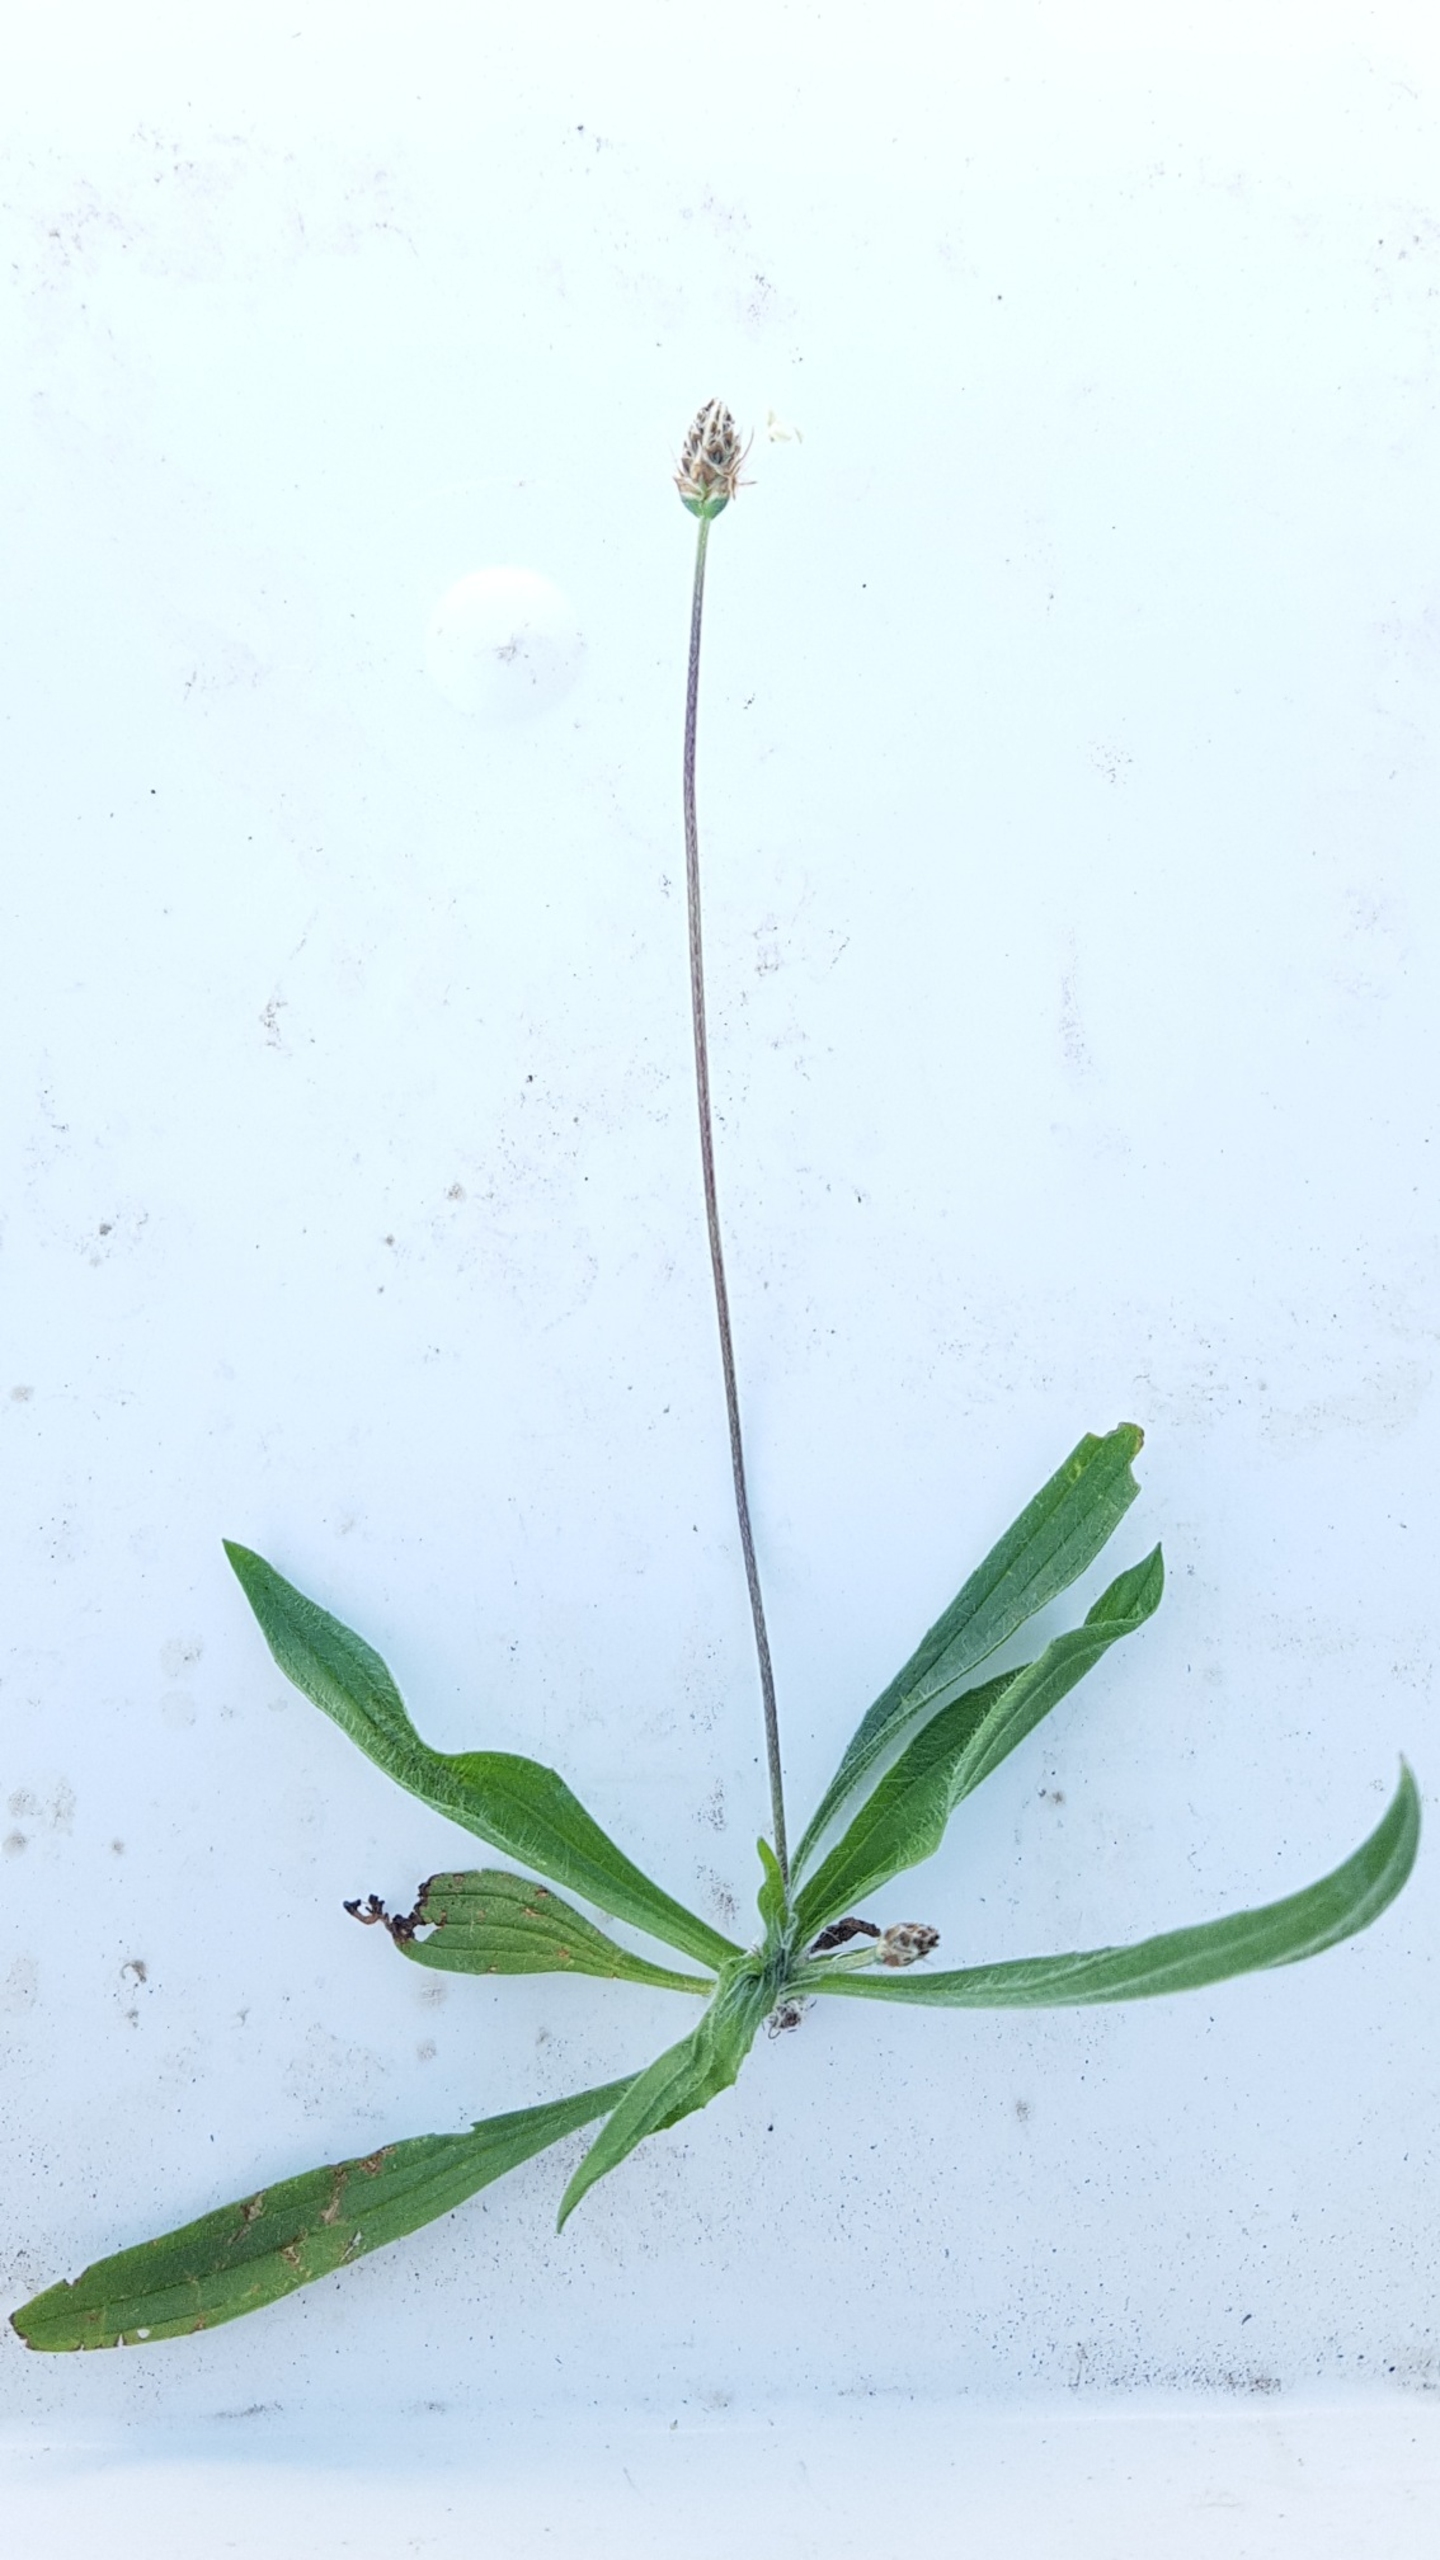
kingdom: Plantae
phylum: Tracheophyta
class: Magnoliopsida
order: Lamiales
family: Plantaginaceae
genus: Plantago
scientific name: Plantago lanceolata
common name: Lancet-vejbred
